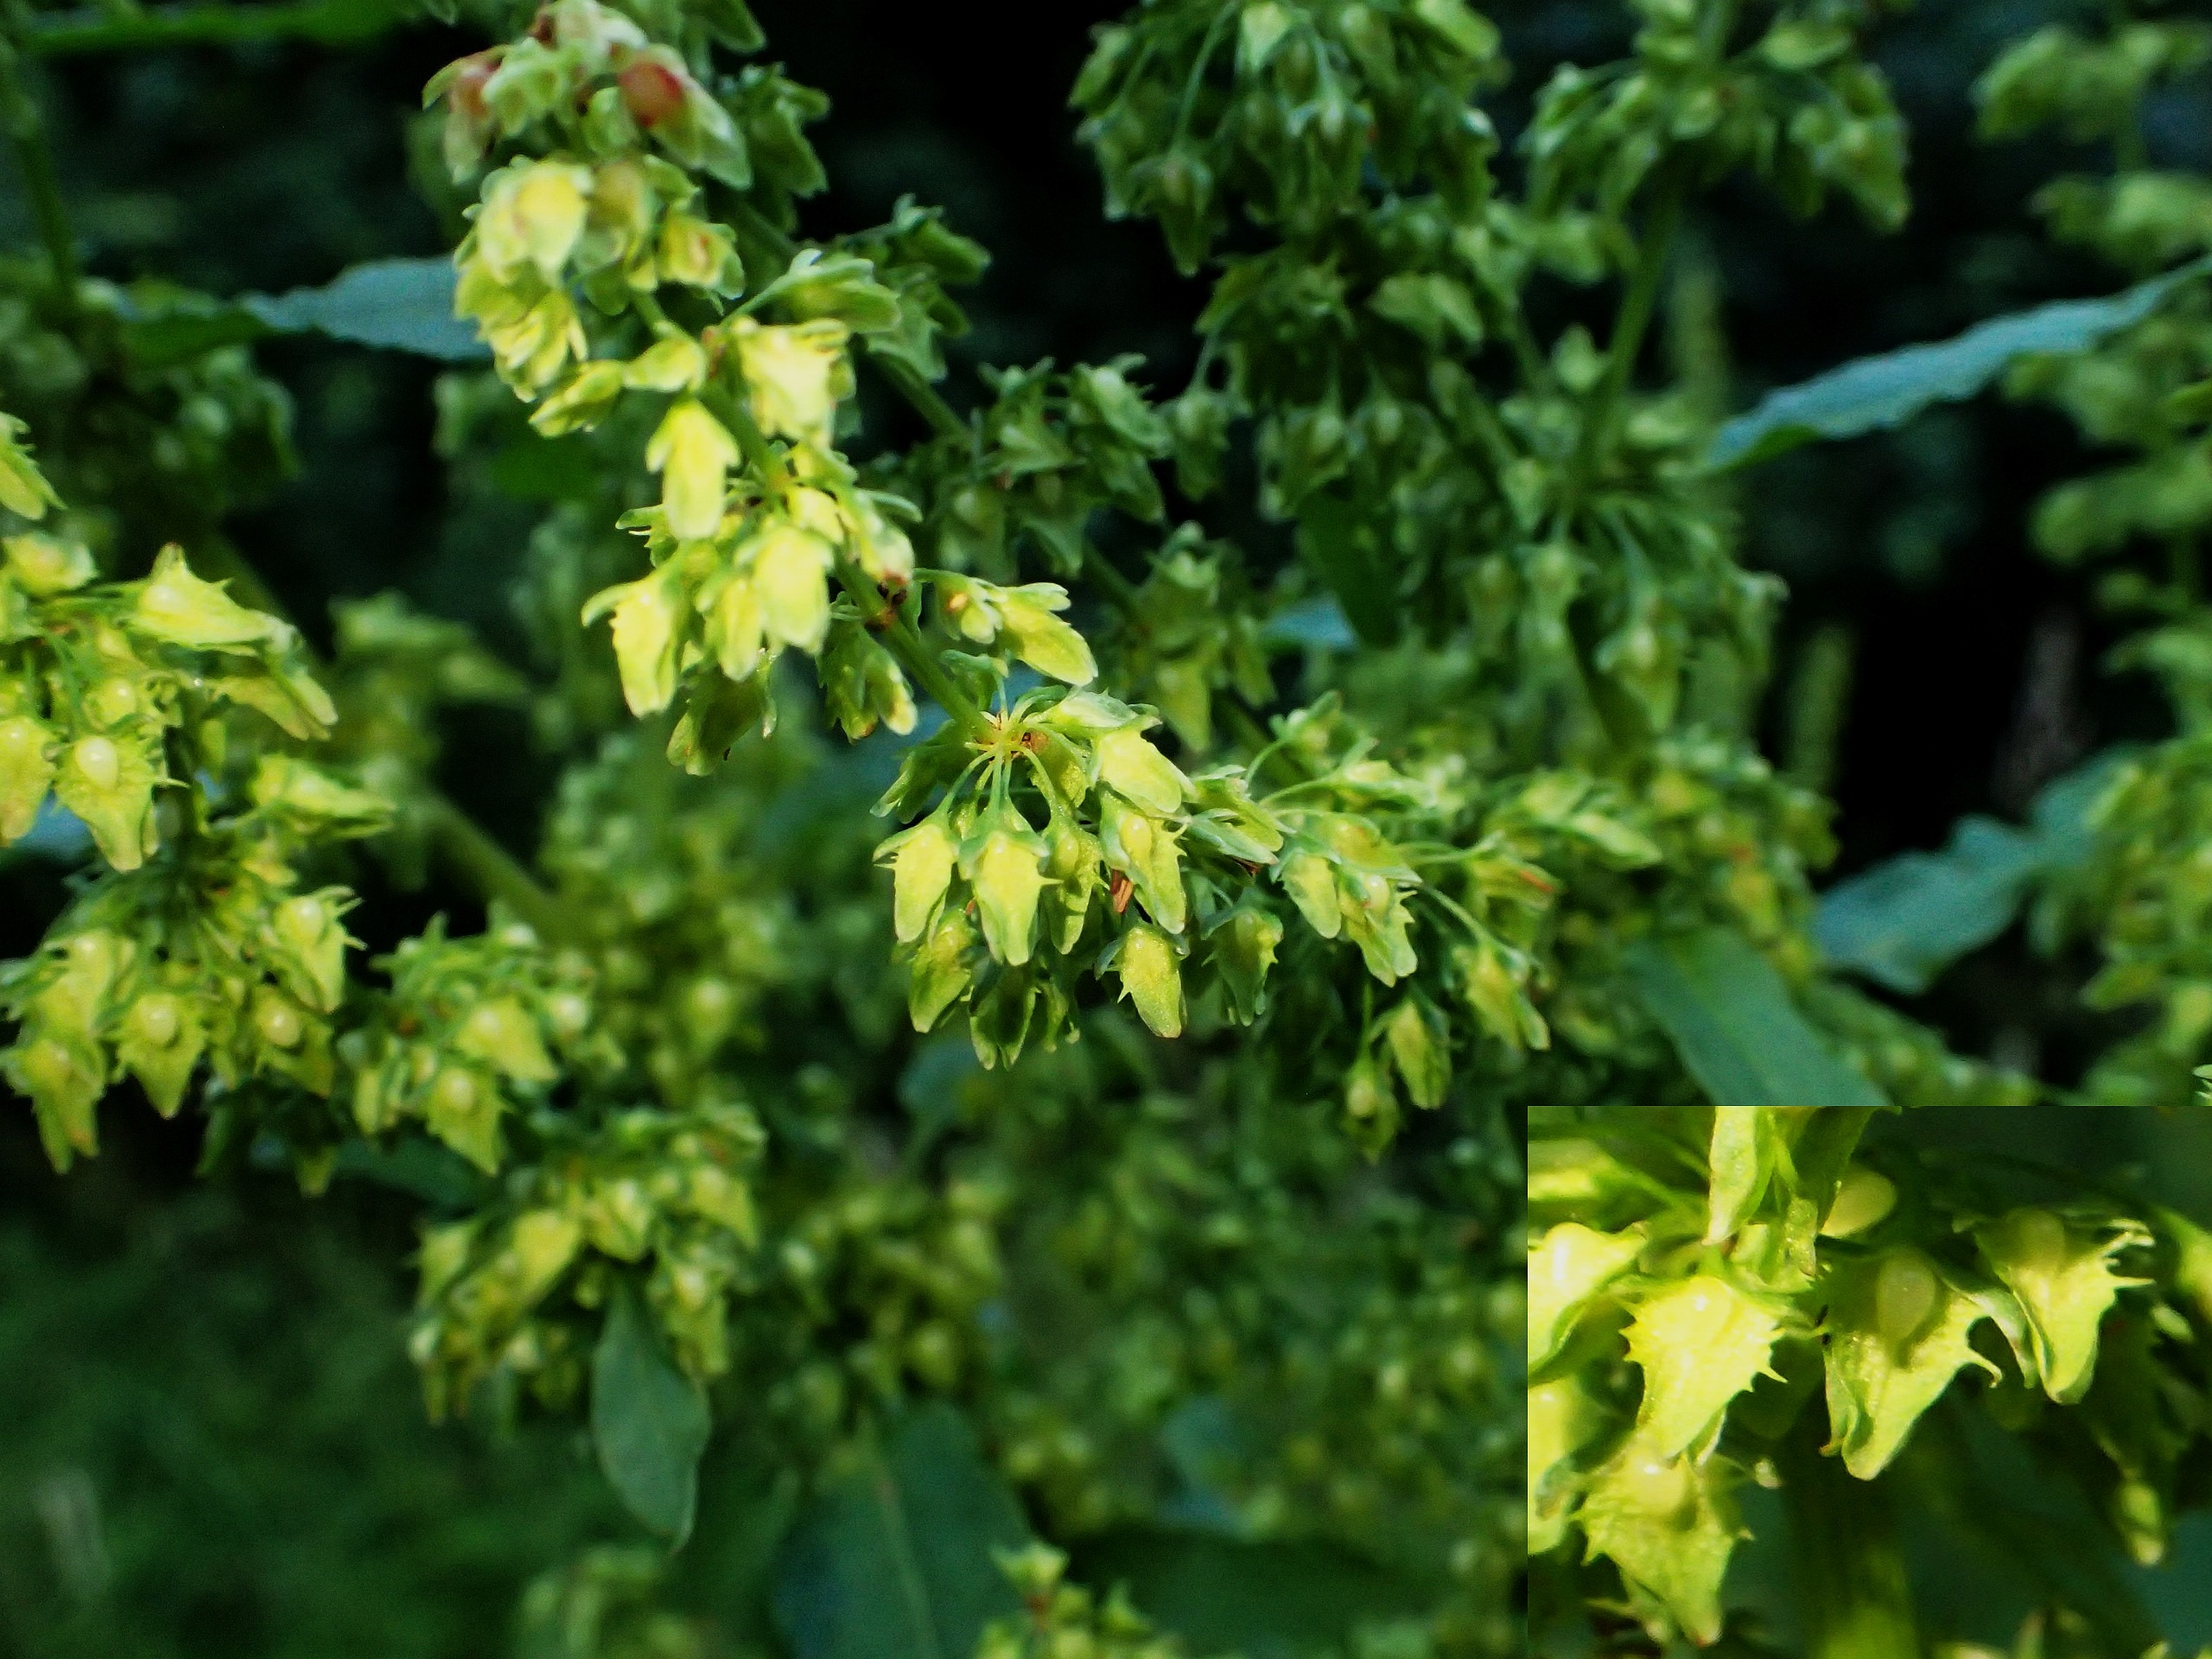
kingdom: Plantae
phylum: Tracheophyta
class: Magnoliopsida
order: Caryophyllales
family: Polygonaceae
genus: Rumex
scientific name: Rumex obtusifolius
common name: Butbladet skræppe
